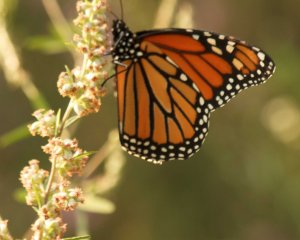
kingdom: Animalia
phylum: Arthropoda
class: Insecta
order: Lepidoptera
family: Nymphalidae
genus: Danaus
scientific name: Danaus plexippus
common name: Monarch
